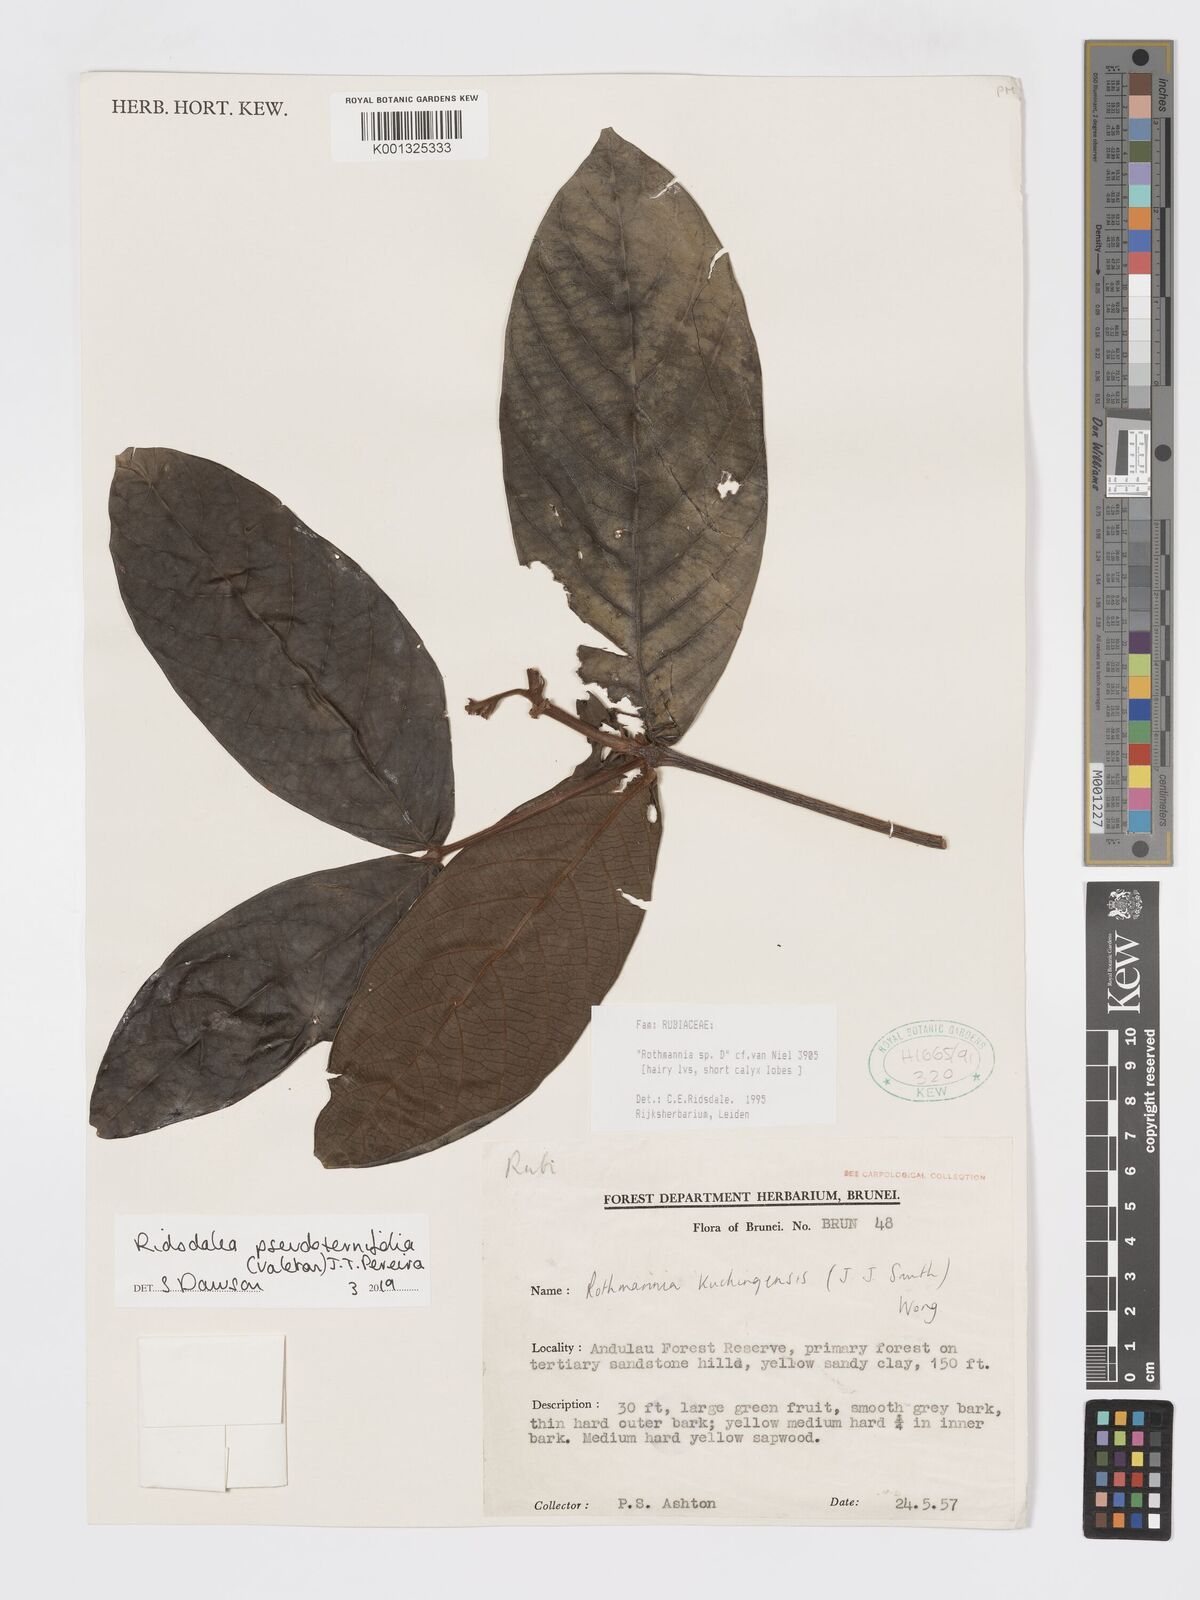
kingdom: Plantae
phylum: Tracheophyta
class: Magnoliopsida
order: Gentianales
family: Rubiaceae
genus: Ridsdalea
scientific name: Ridsdalea pseudoternifolia
